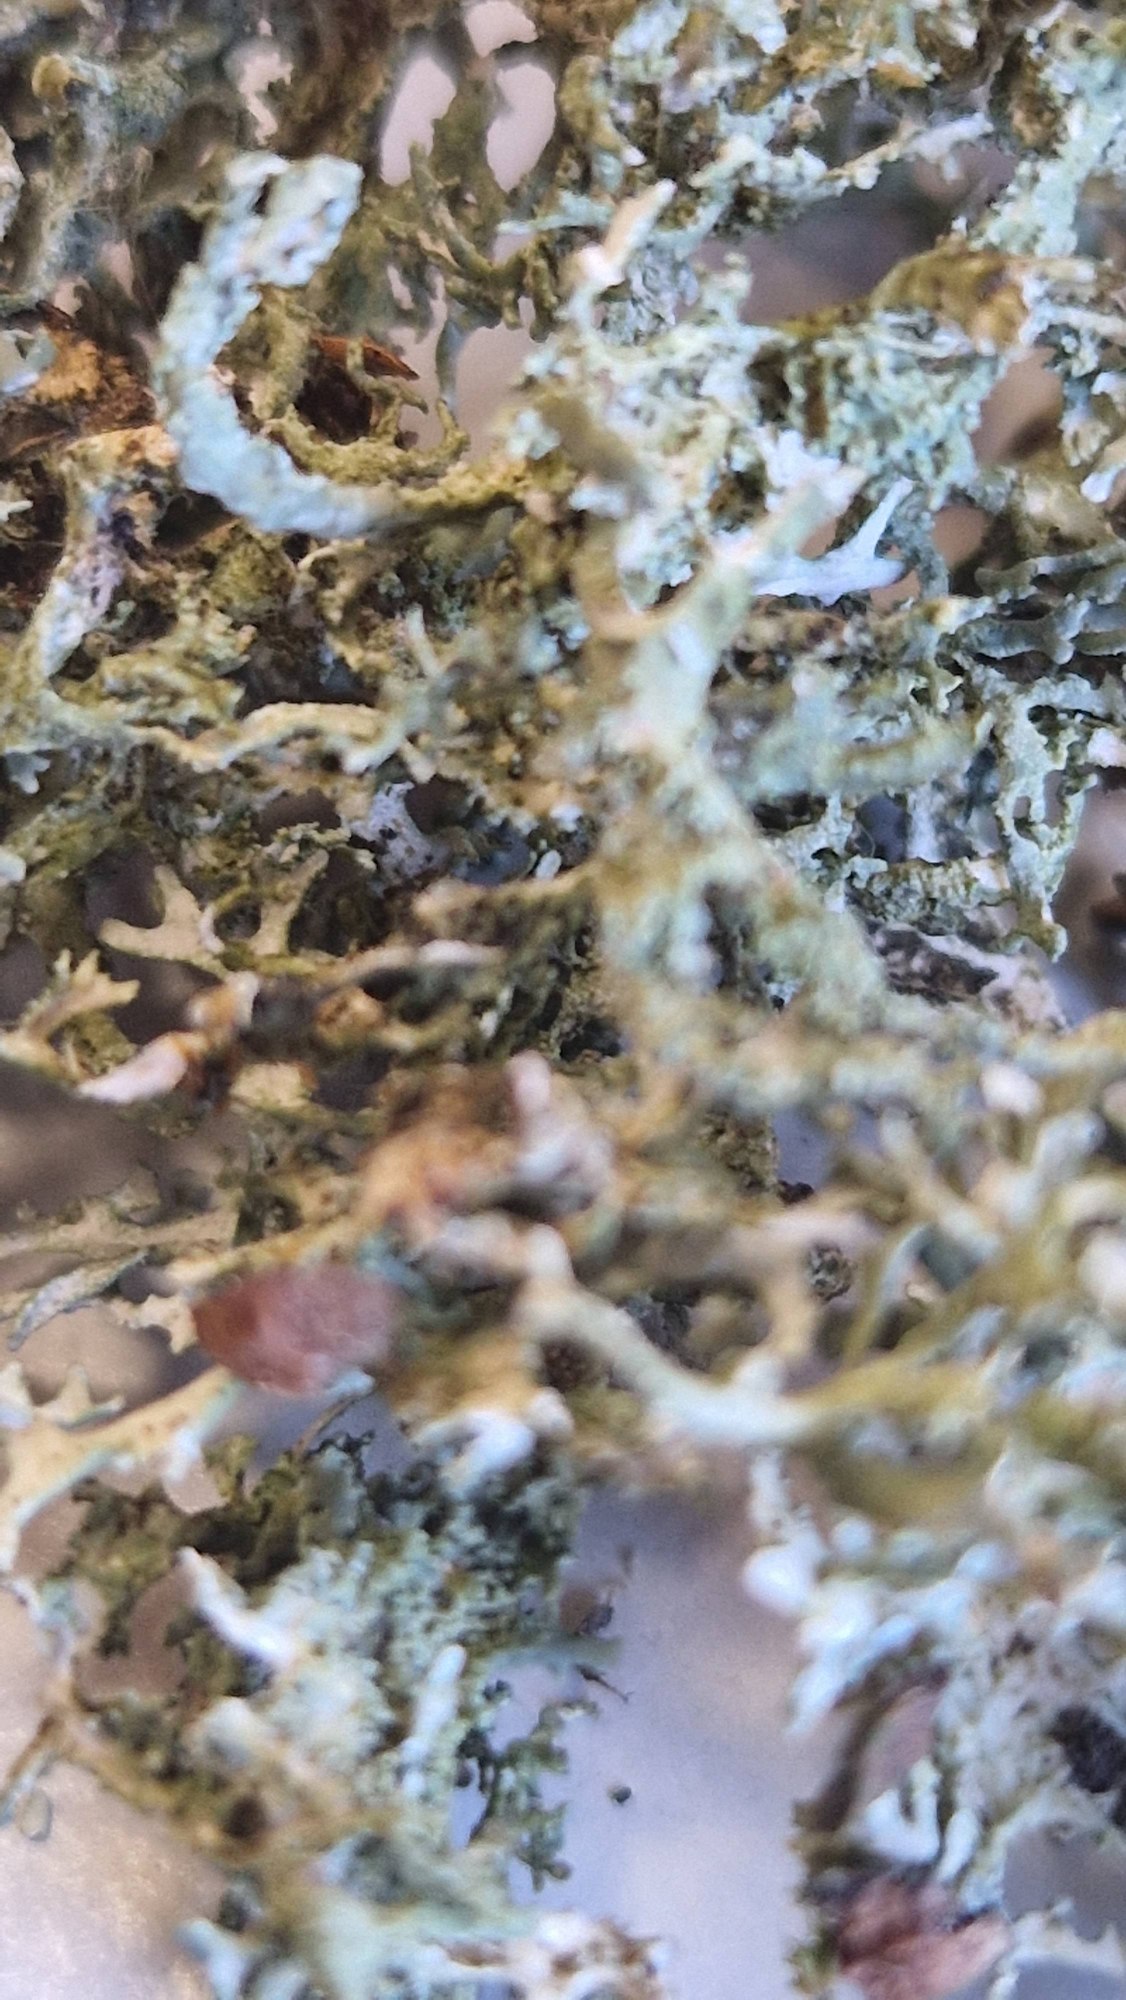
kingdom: Fungi
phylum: Ascomycota
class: Lecanoromycetes
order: Lecanorales
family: Parmeliaceae
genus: Evernia
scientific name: Evernia prunastri
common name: Almindelig slåenlav
